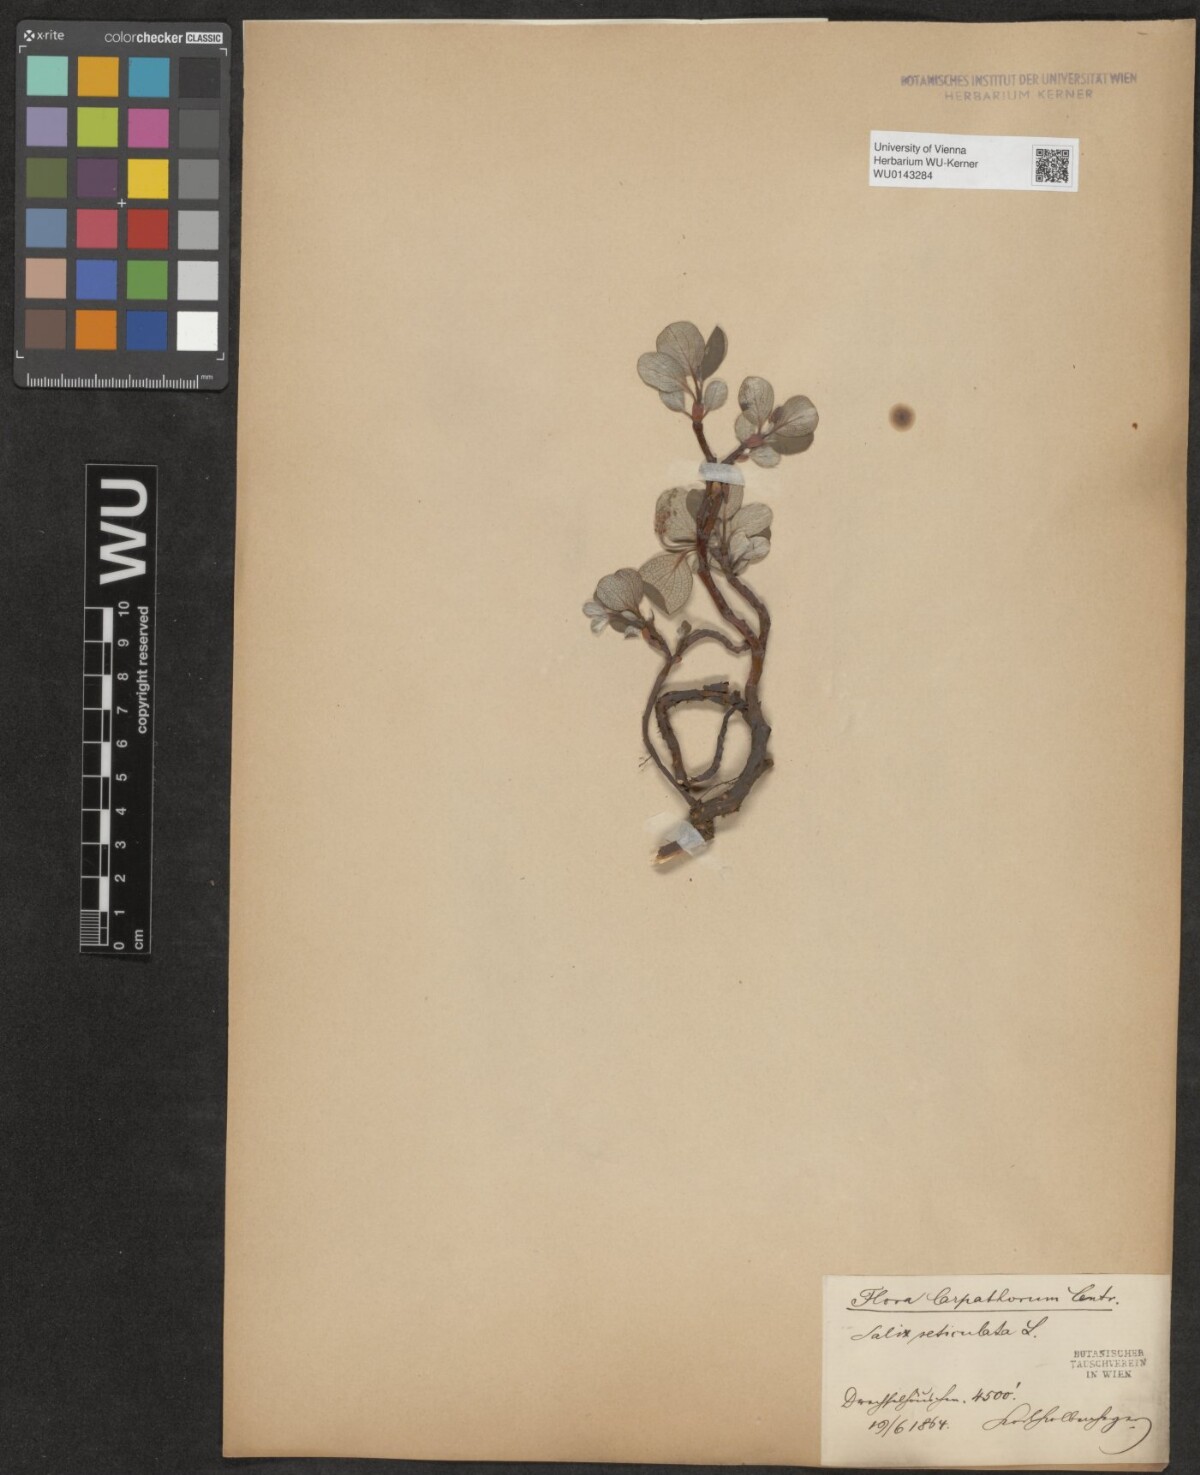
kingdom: Plantae
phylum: Tracheophyta
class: Magnoliopsida
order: Malpighiales
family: Salicaceae
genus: Salix
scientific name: Salix reticulata
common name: Net-leaved willow
